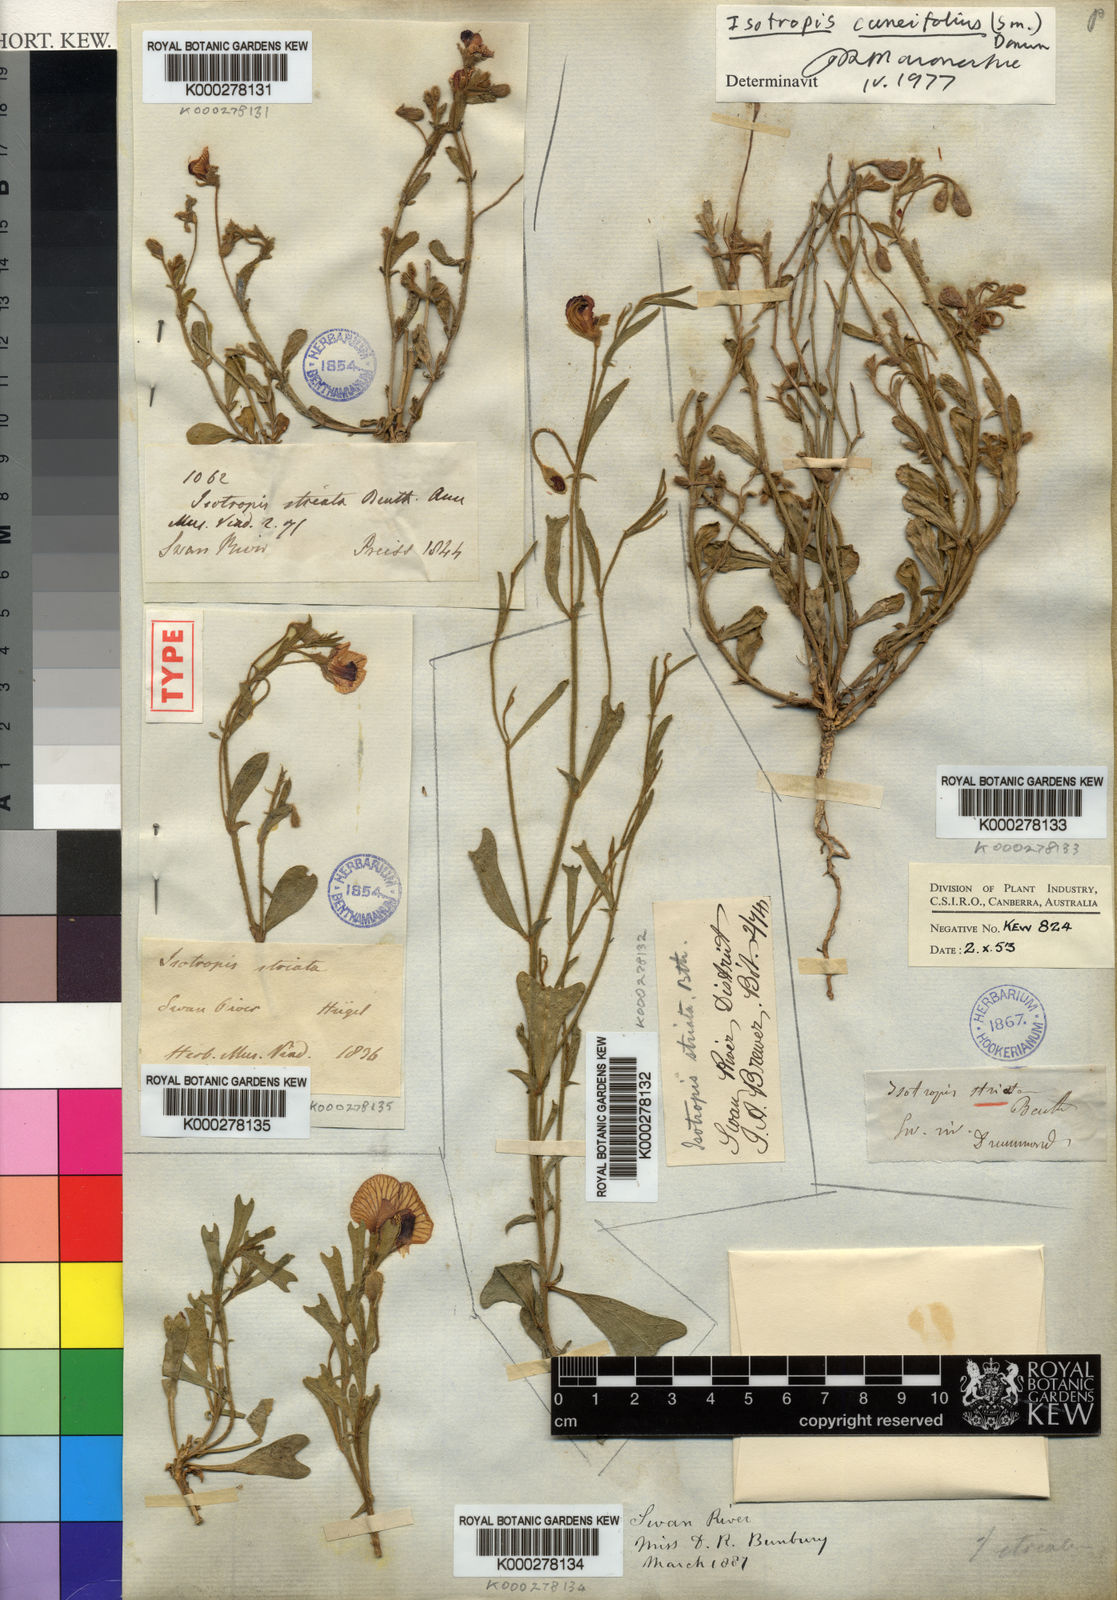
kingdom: Plantae
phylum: Tracheophyta
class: Magnoliopsida
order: Fabales
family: Fabaceae
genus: Isotropis
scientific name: Isotropis cuneifolia
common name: Granny bonnets
